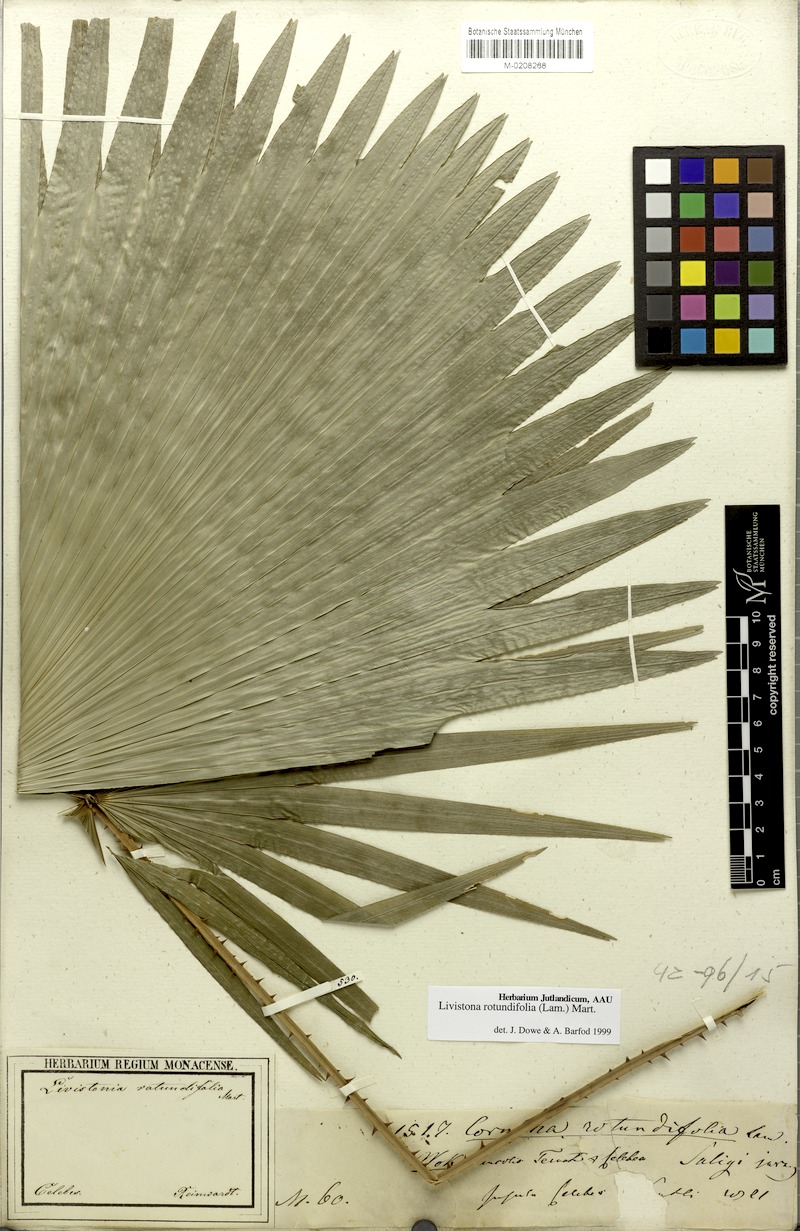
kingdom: Plantae
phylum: Tracheophyta
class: Liliopsida
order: Arecales
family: Arecaceae
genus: Saribus
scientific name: Saribus rotundifolius
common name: Palm
